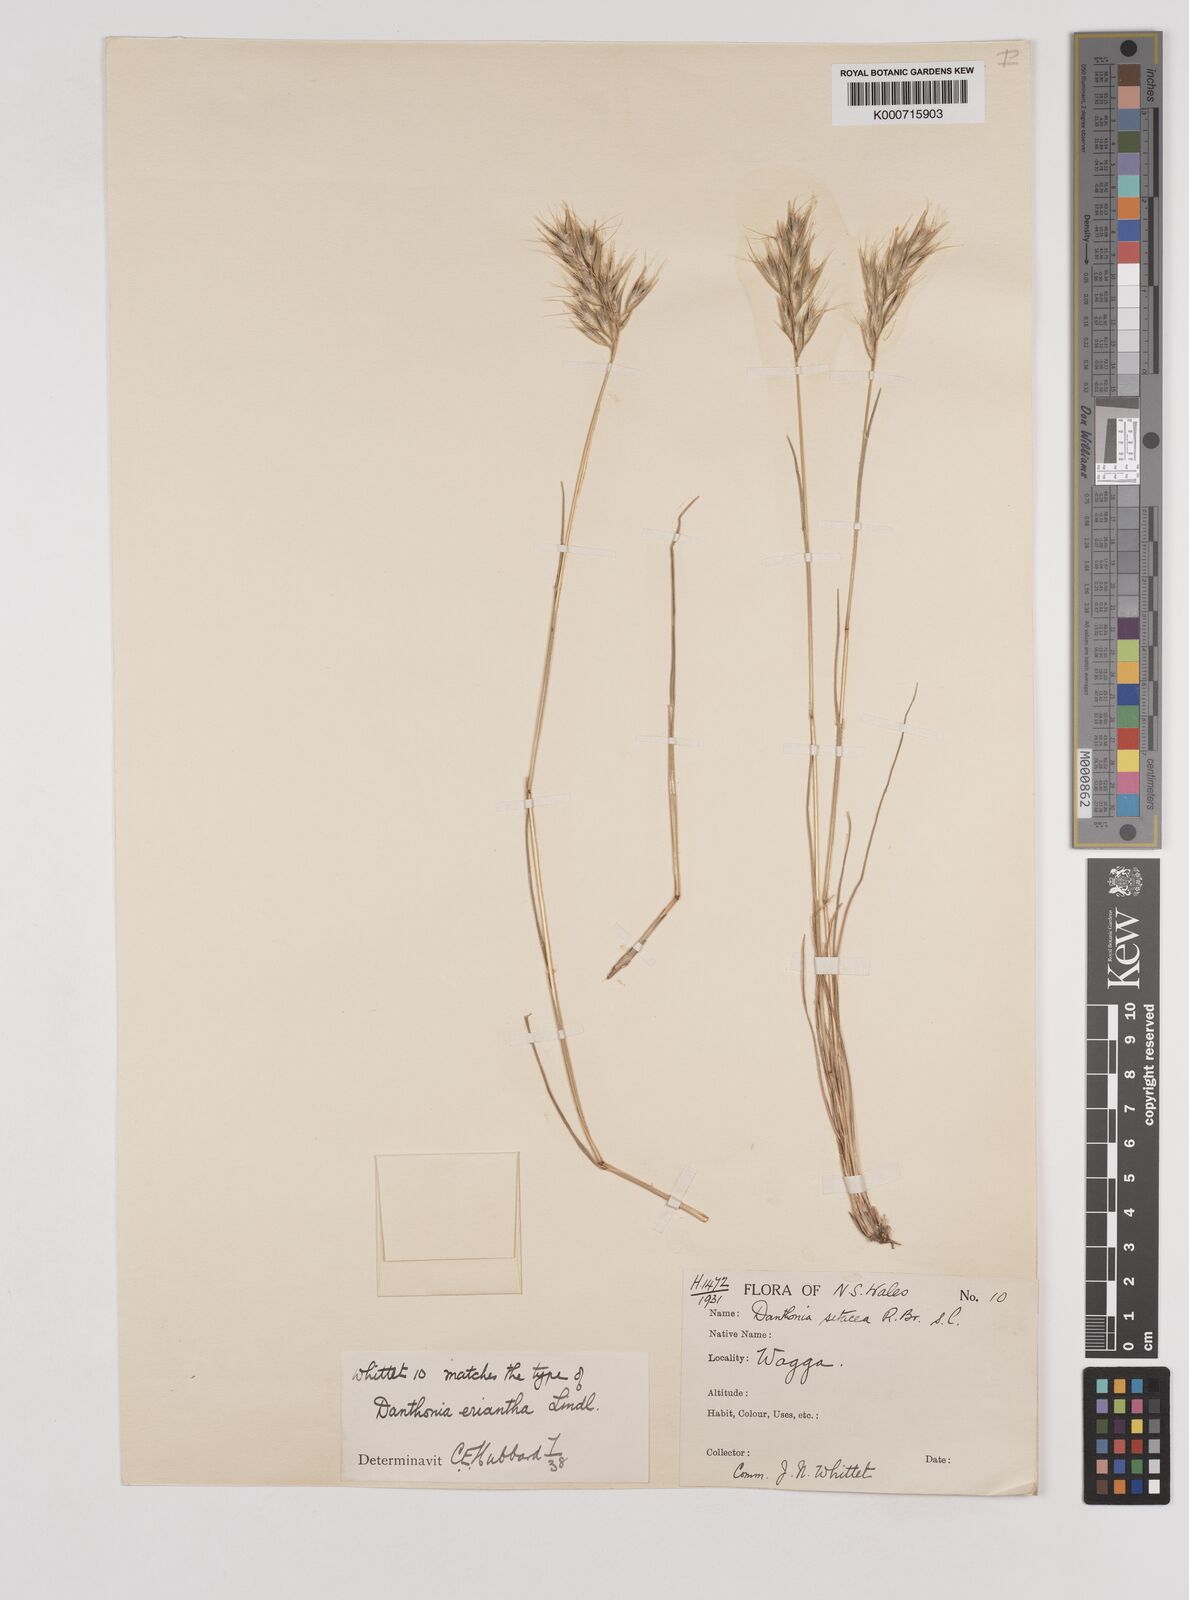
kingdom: Plantae
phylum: Tracheophyta
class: Liliopsida
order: Poales
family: Poaceae
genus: Rytidosperma
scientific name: Rytidosperma erianthum
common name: Hill wallaby grass
